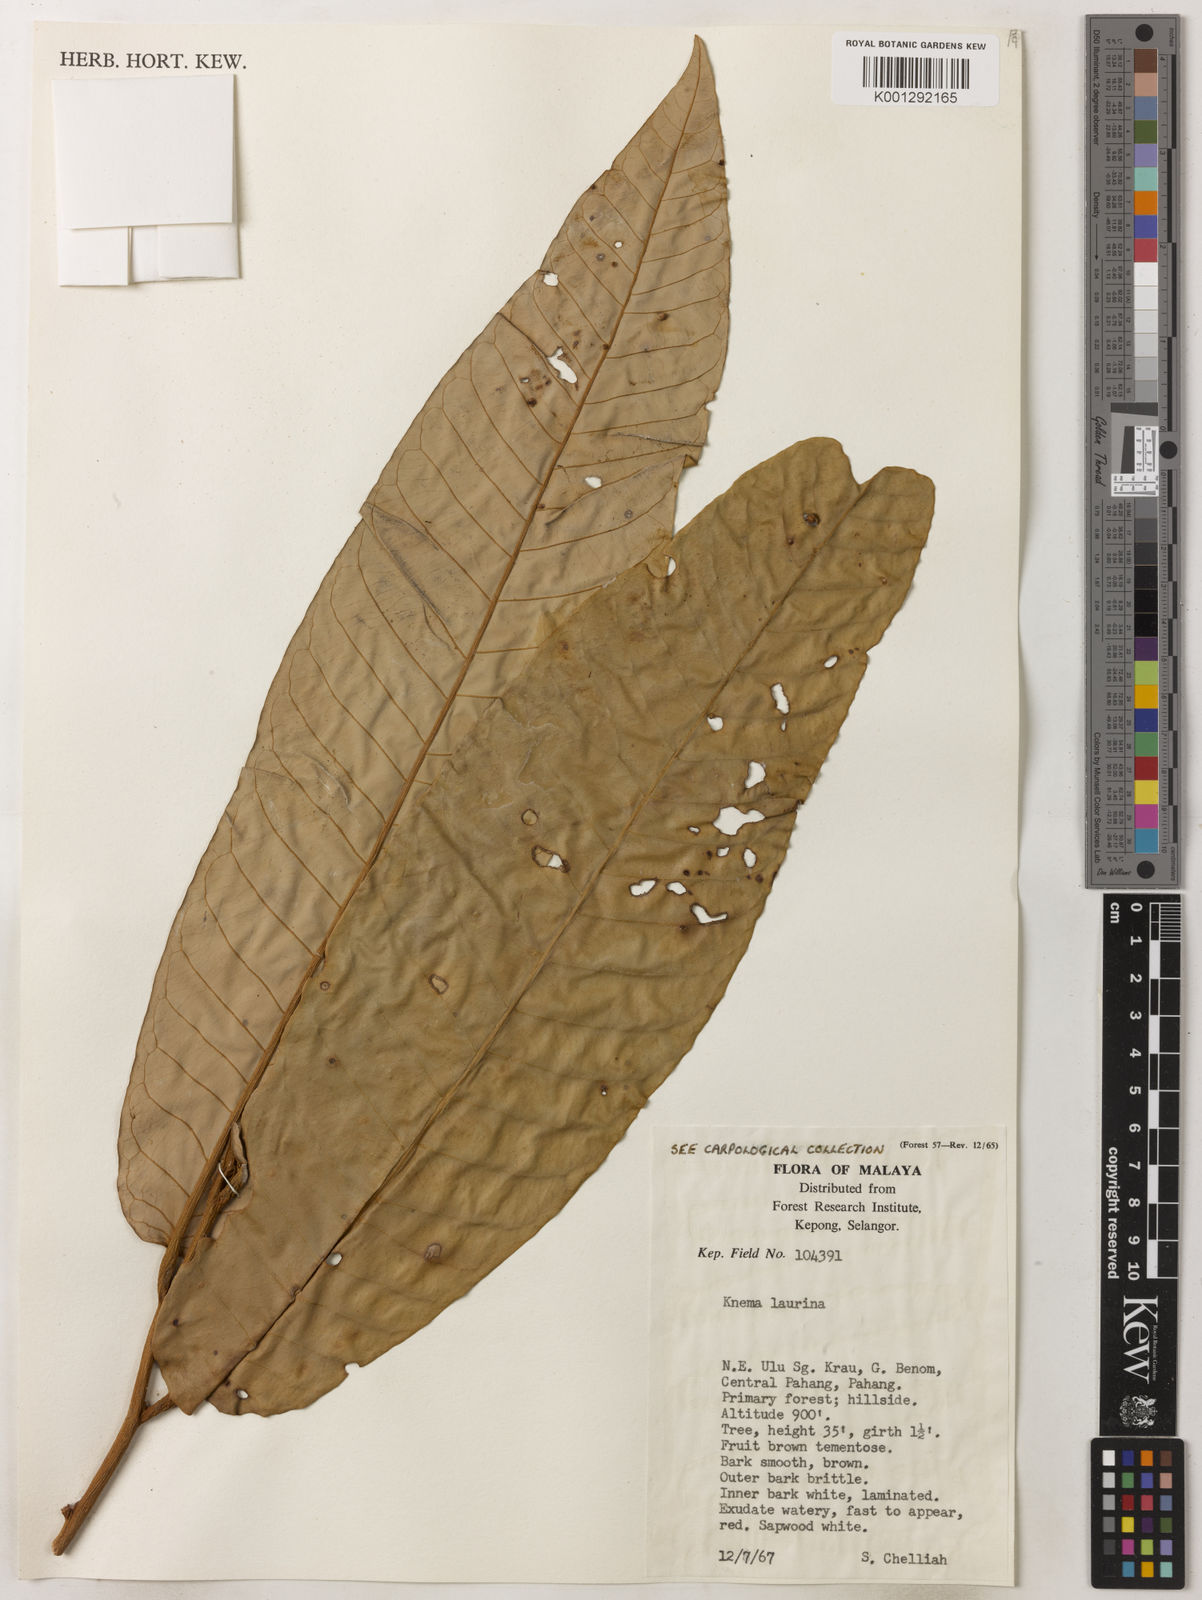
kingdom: Plantae
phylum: Tracheophyta
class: Magnoliopsida
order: Magnoliales
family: Myristicaceae
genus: Knema
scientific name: Knema laurina
